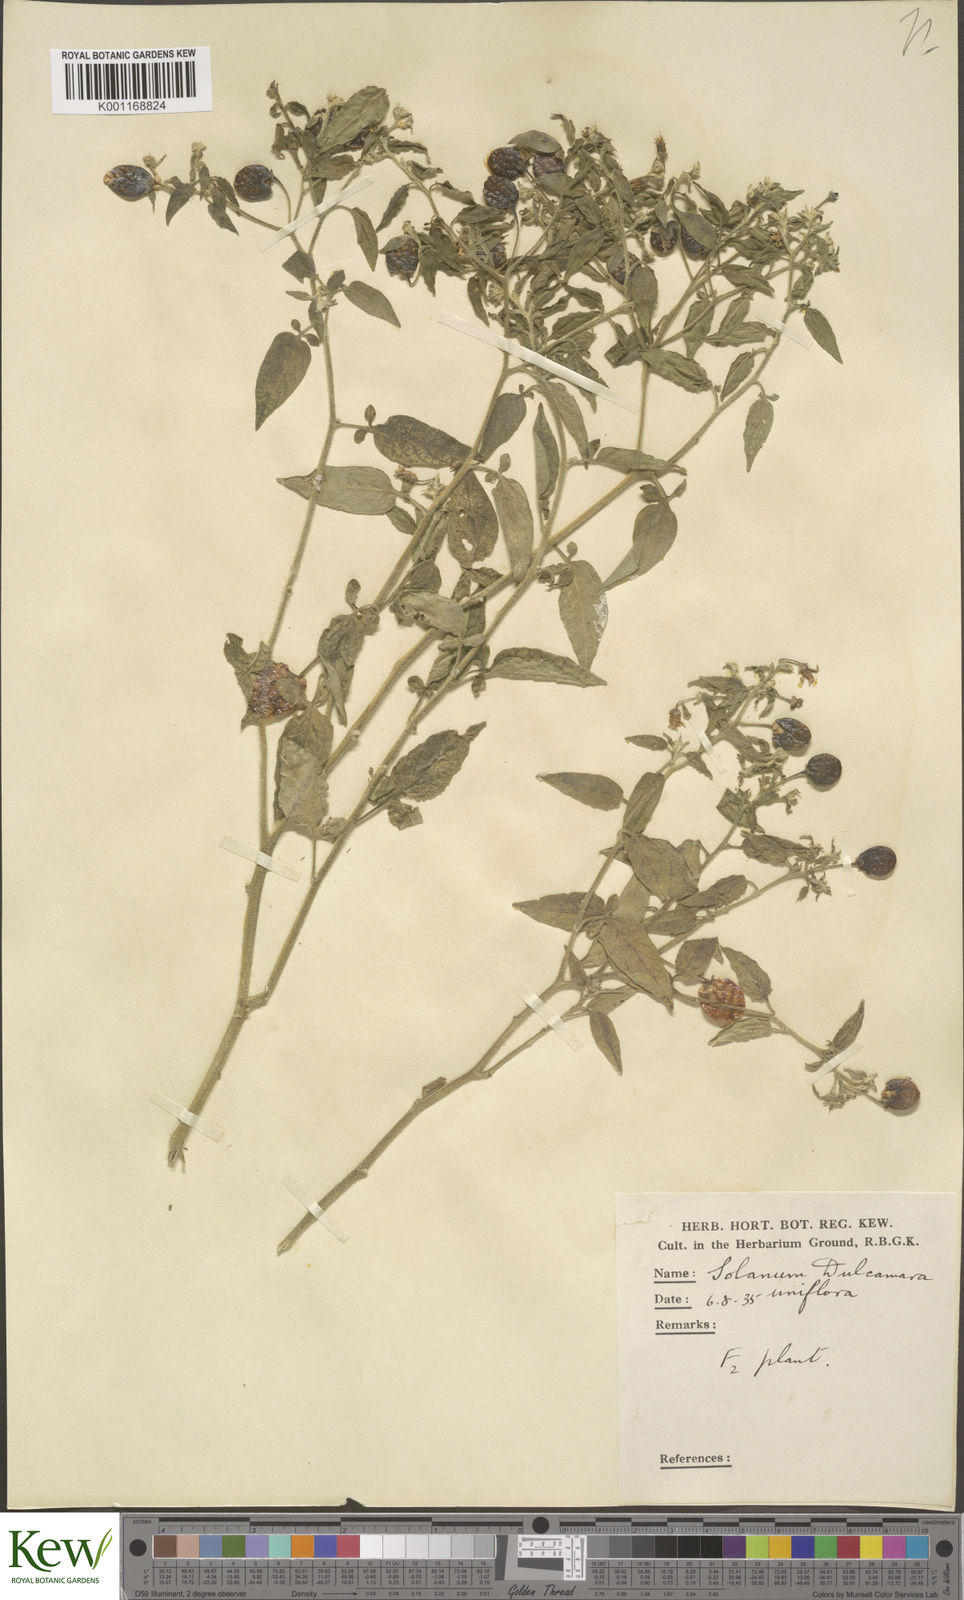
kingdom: Plantae
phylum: Tracheophyta
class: Magnoliopsida
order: Solanales
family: Solanaceae
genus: Solanum
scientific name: Solanum dulcamara
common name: Climbing nightshade
